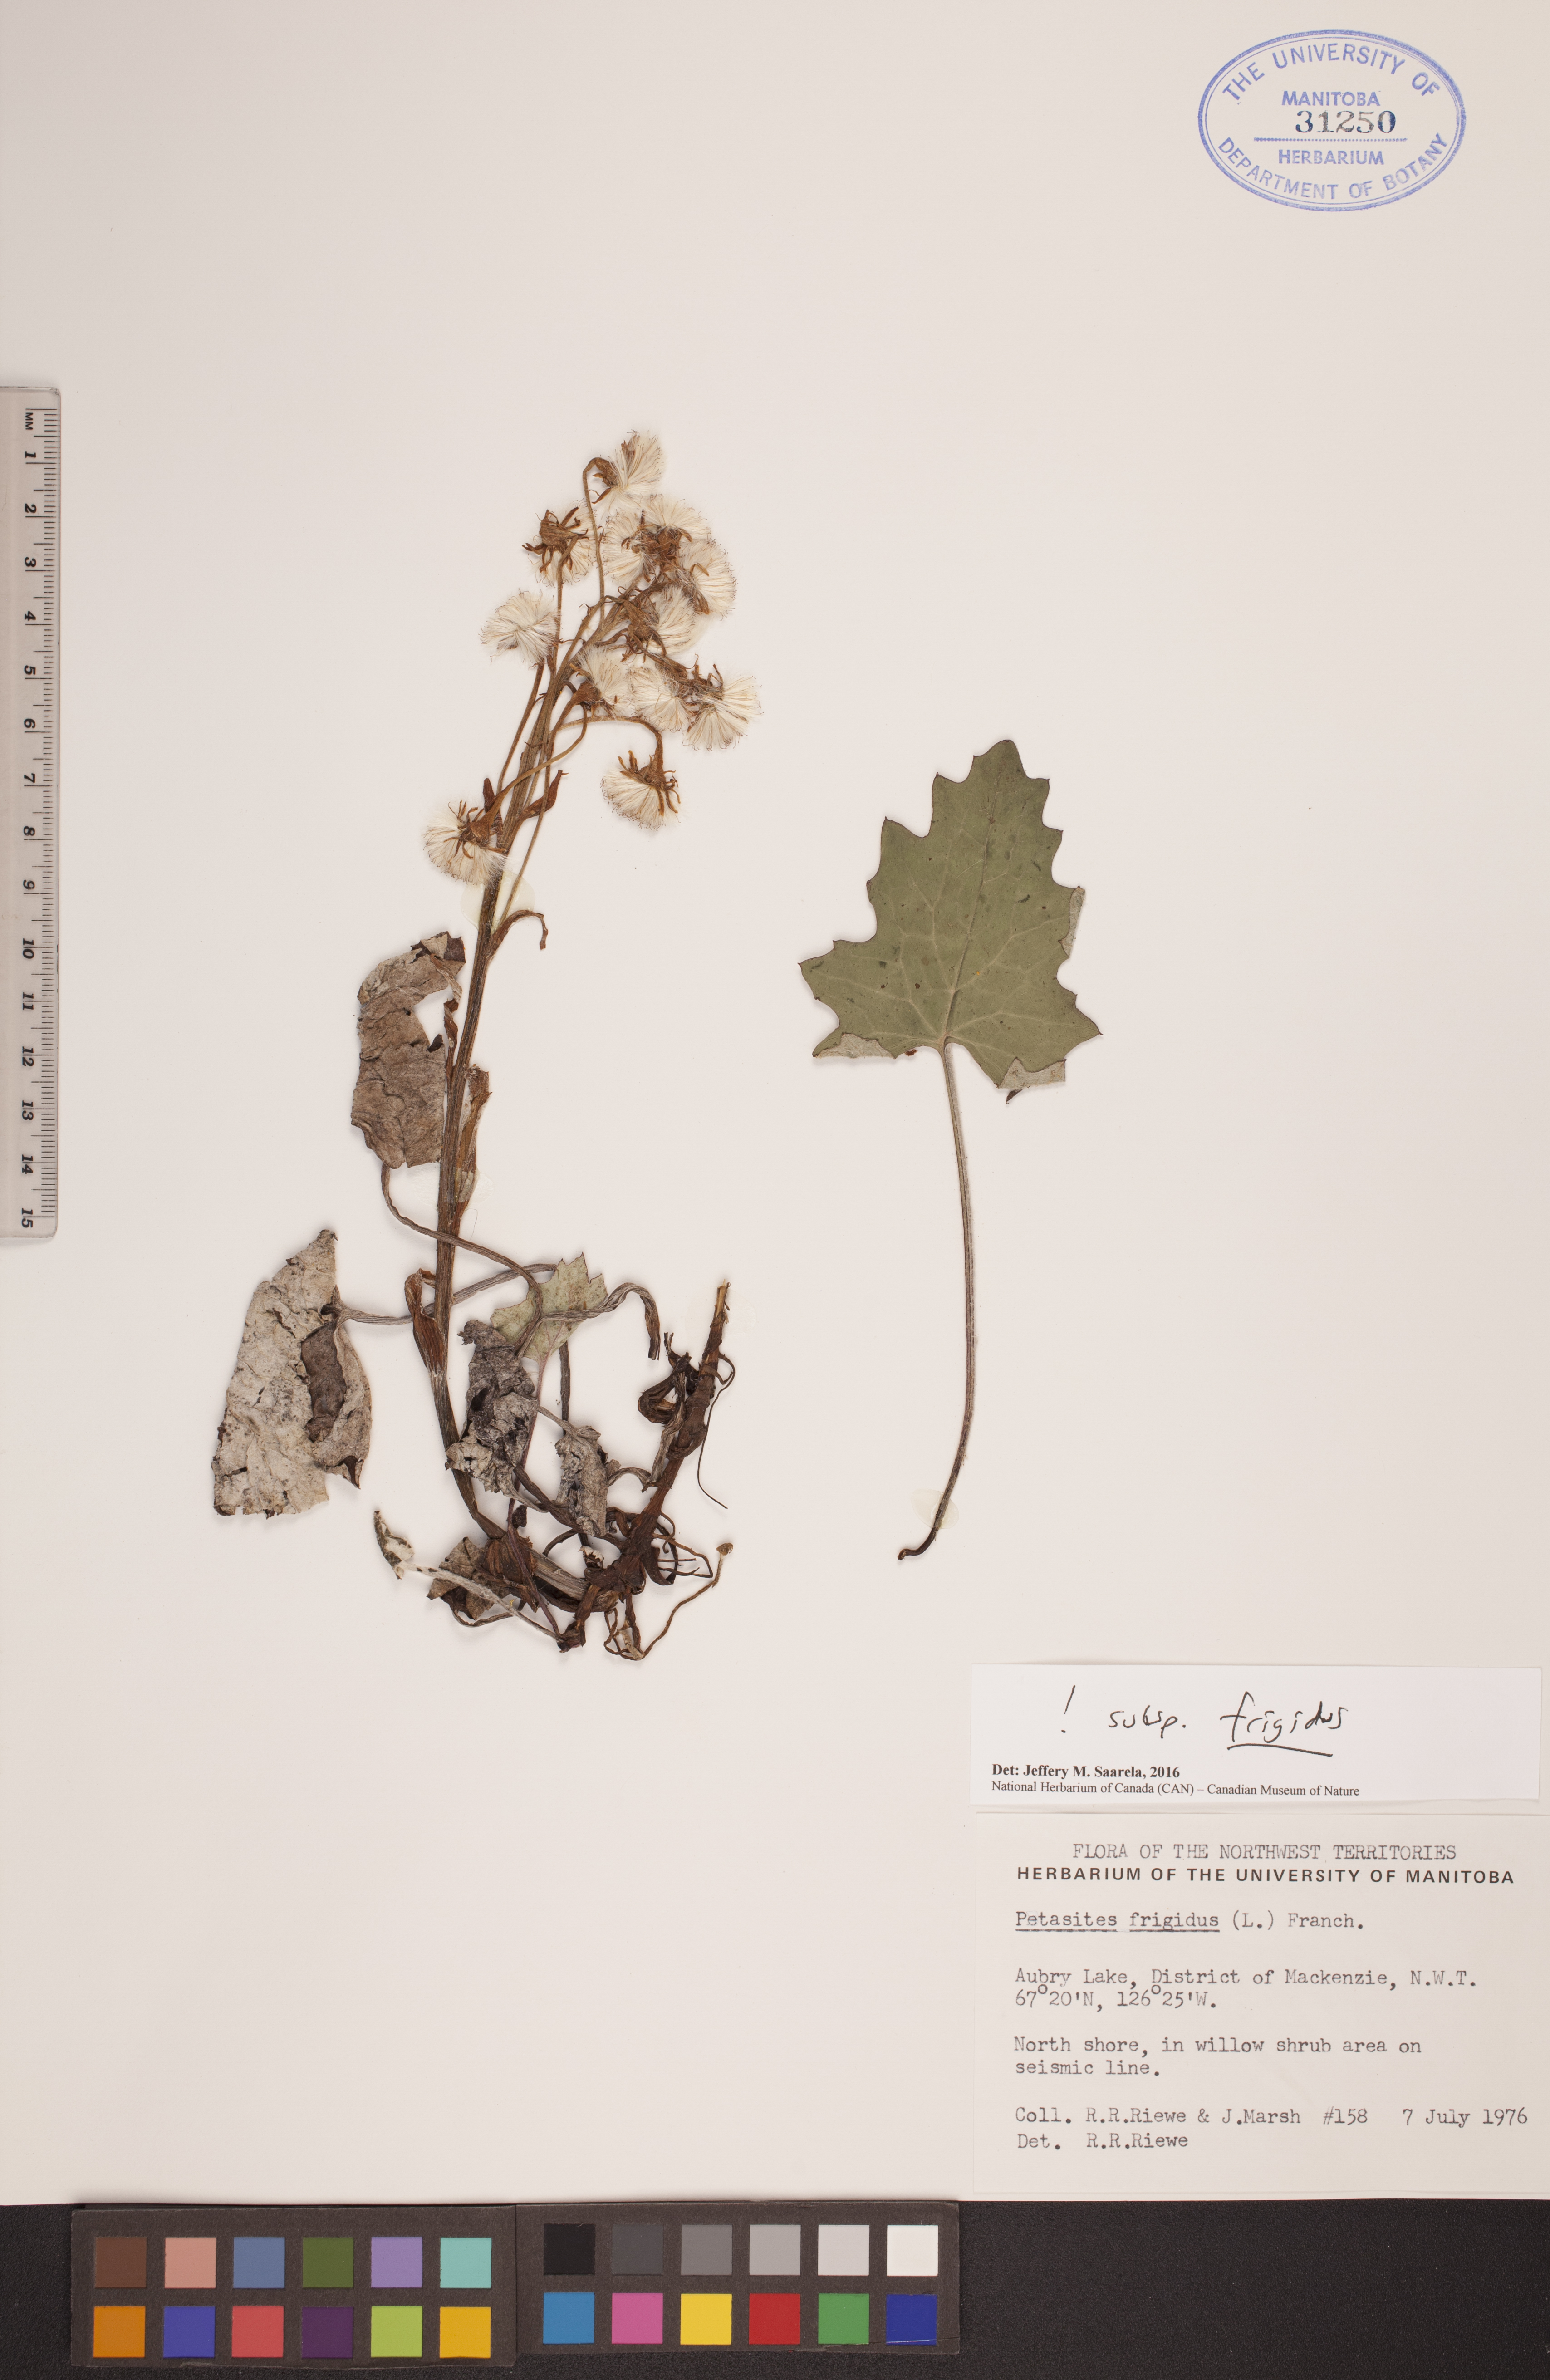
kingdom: Plantae
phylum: Tracheophyta
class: Magnoliopsida
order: Asterales
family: Asteraceae
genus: Petasites
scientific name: Petasites frigidus
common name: Arctic butterbur
